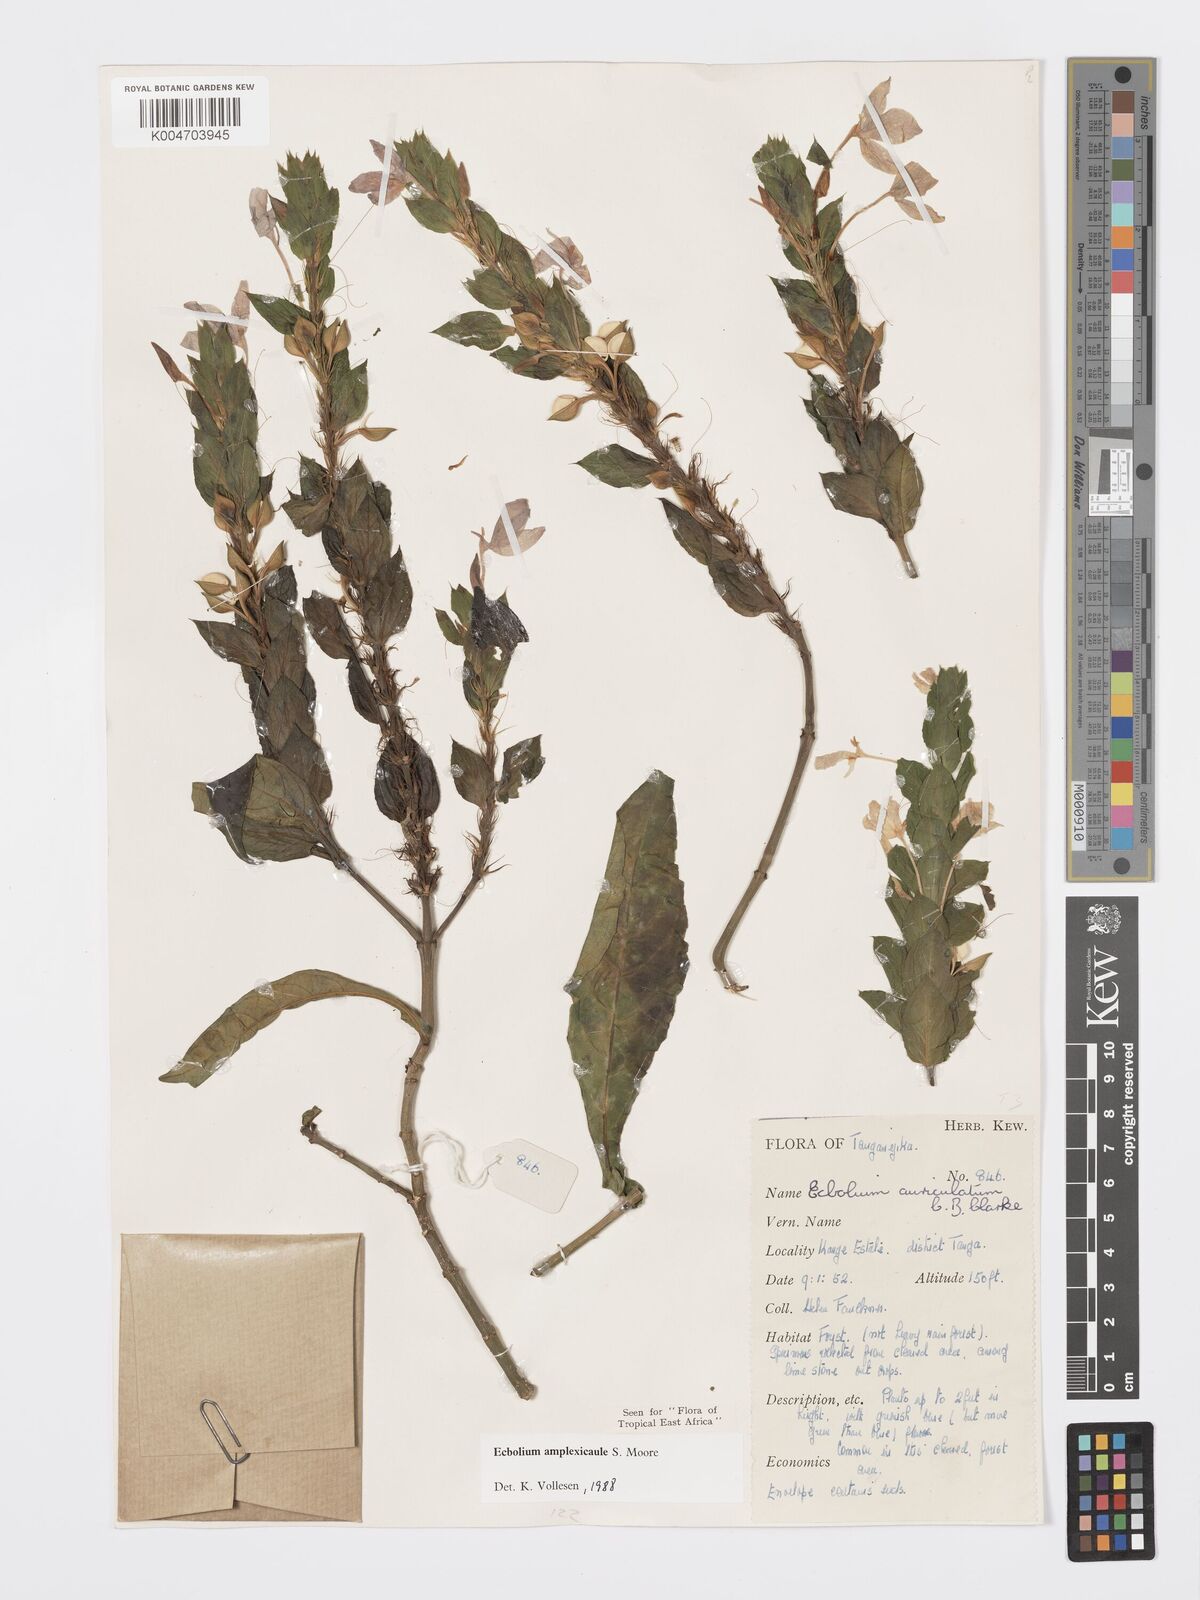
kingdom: Plantae
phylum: Tracheophyta
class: Magnoliopsida
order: Lamiales
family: Acanthaceae
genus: Ecbolium
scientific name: Ecbolium amplexicaule
